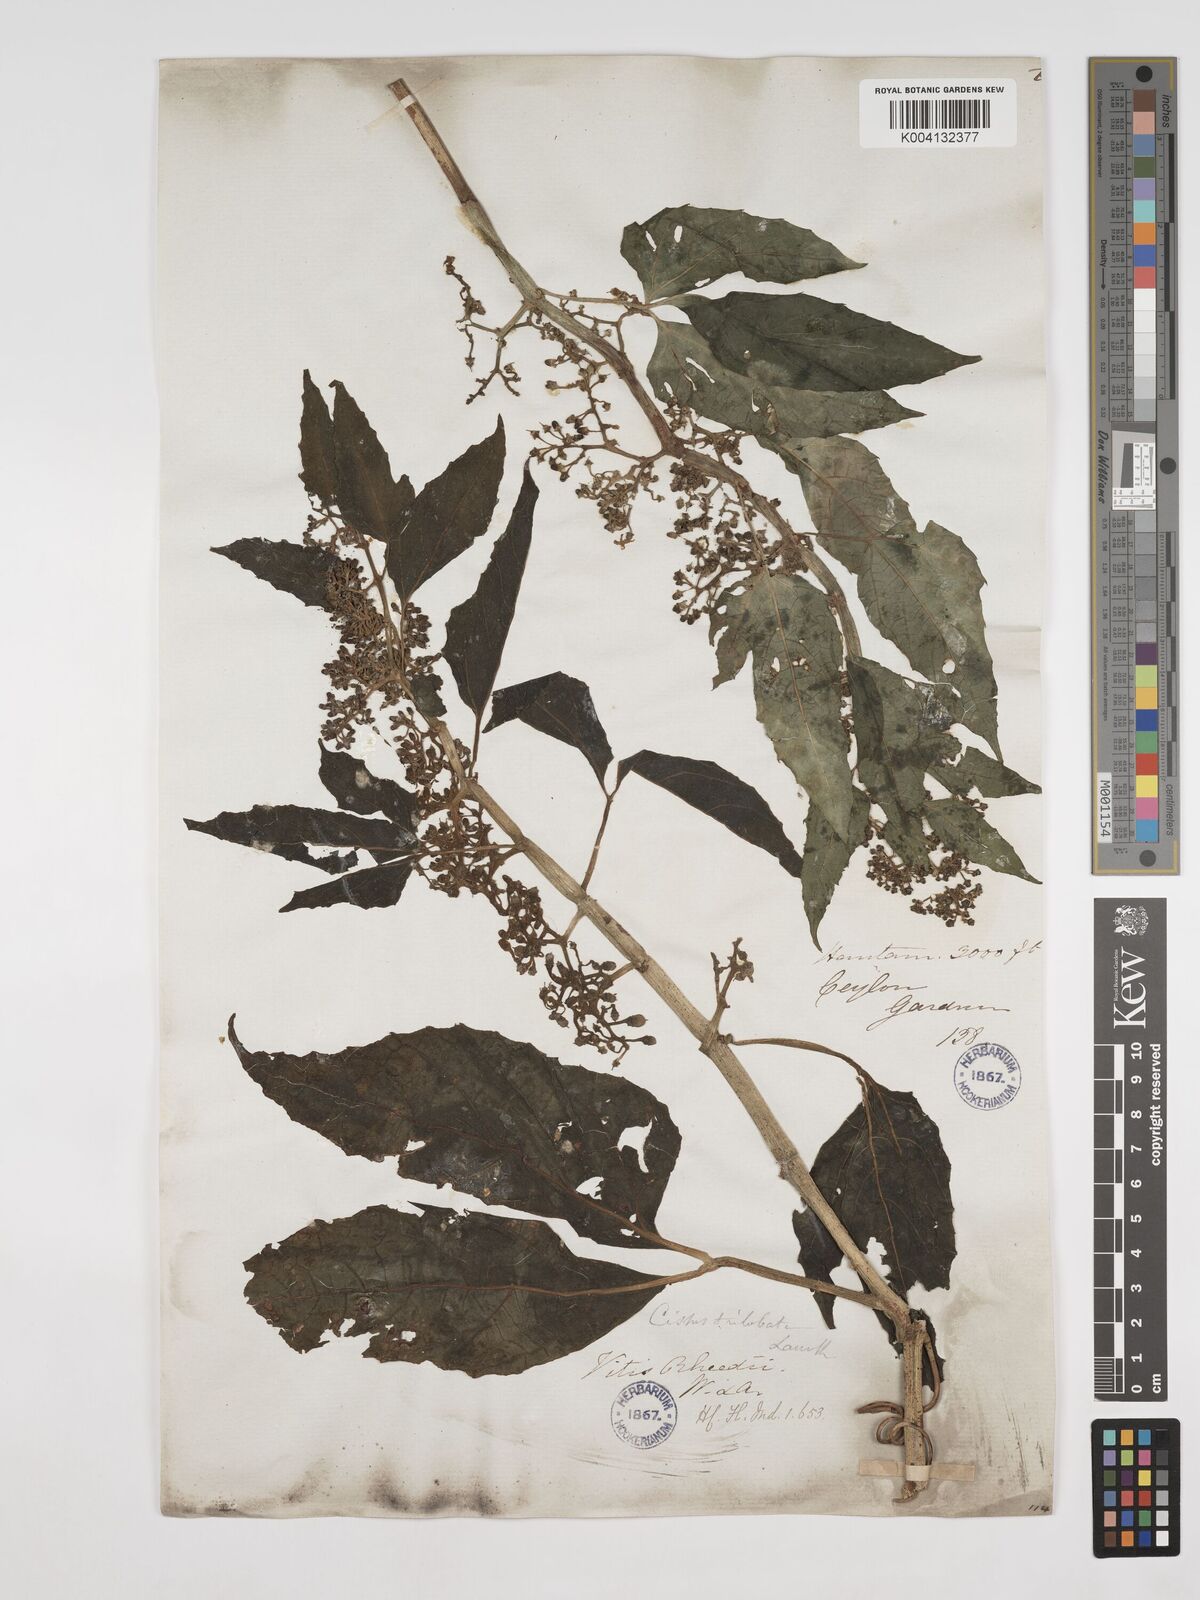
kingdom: Plantae
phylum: Tracheophyta
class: Magnoliopsida
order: Vitales
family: Vitaceae
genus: Cissus
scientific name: Cissus trilobata
